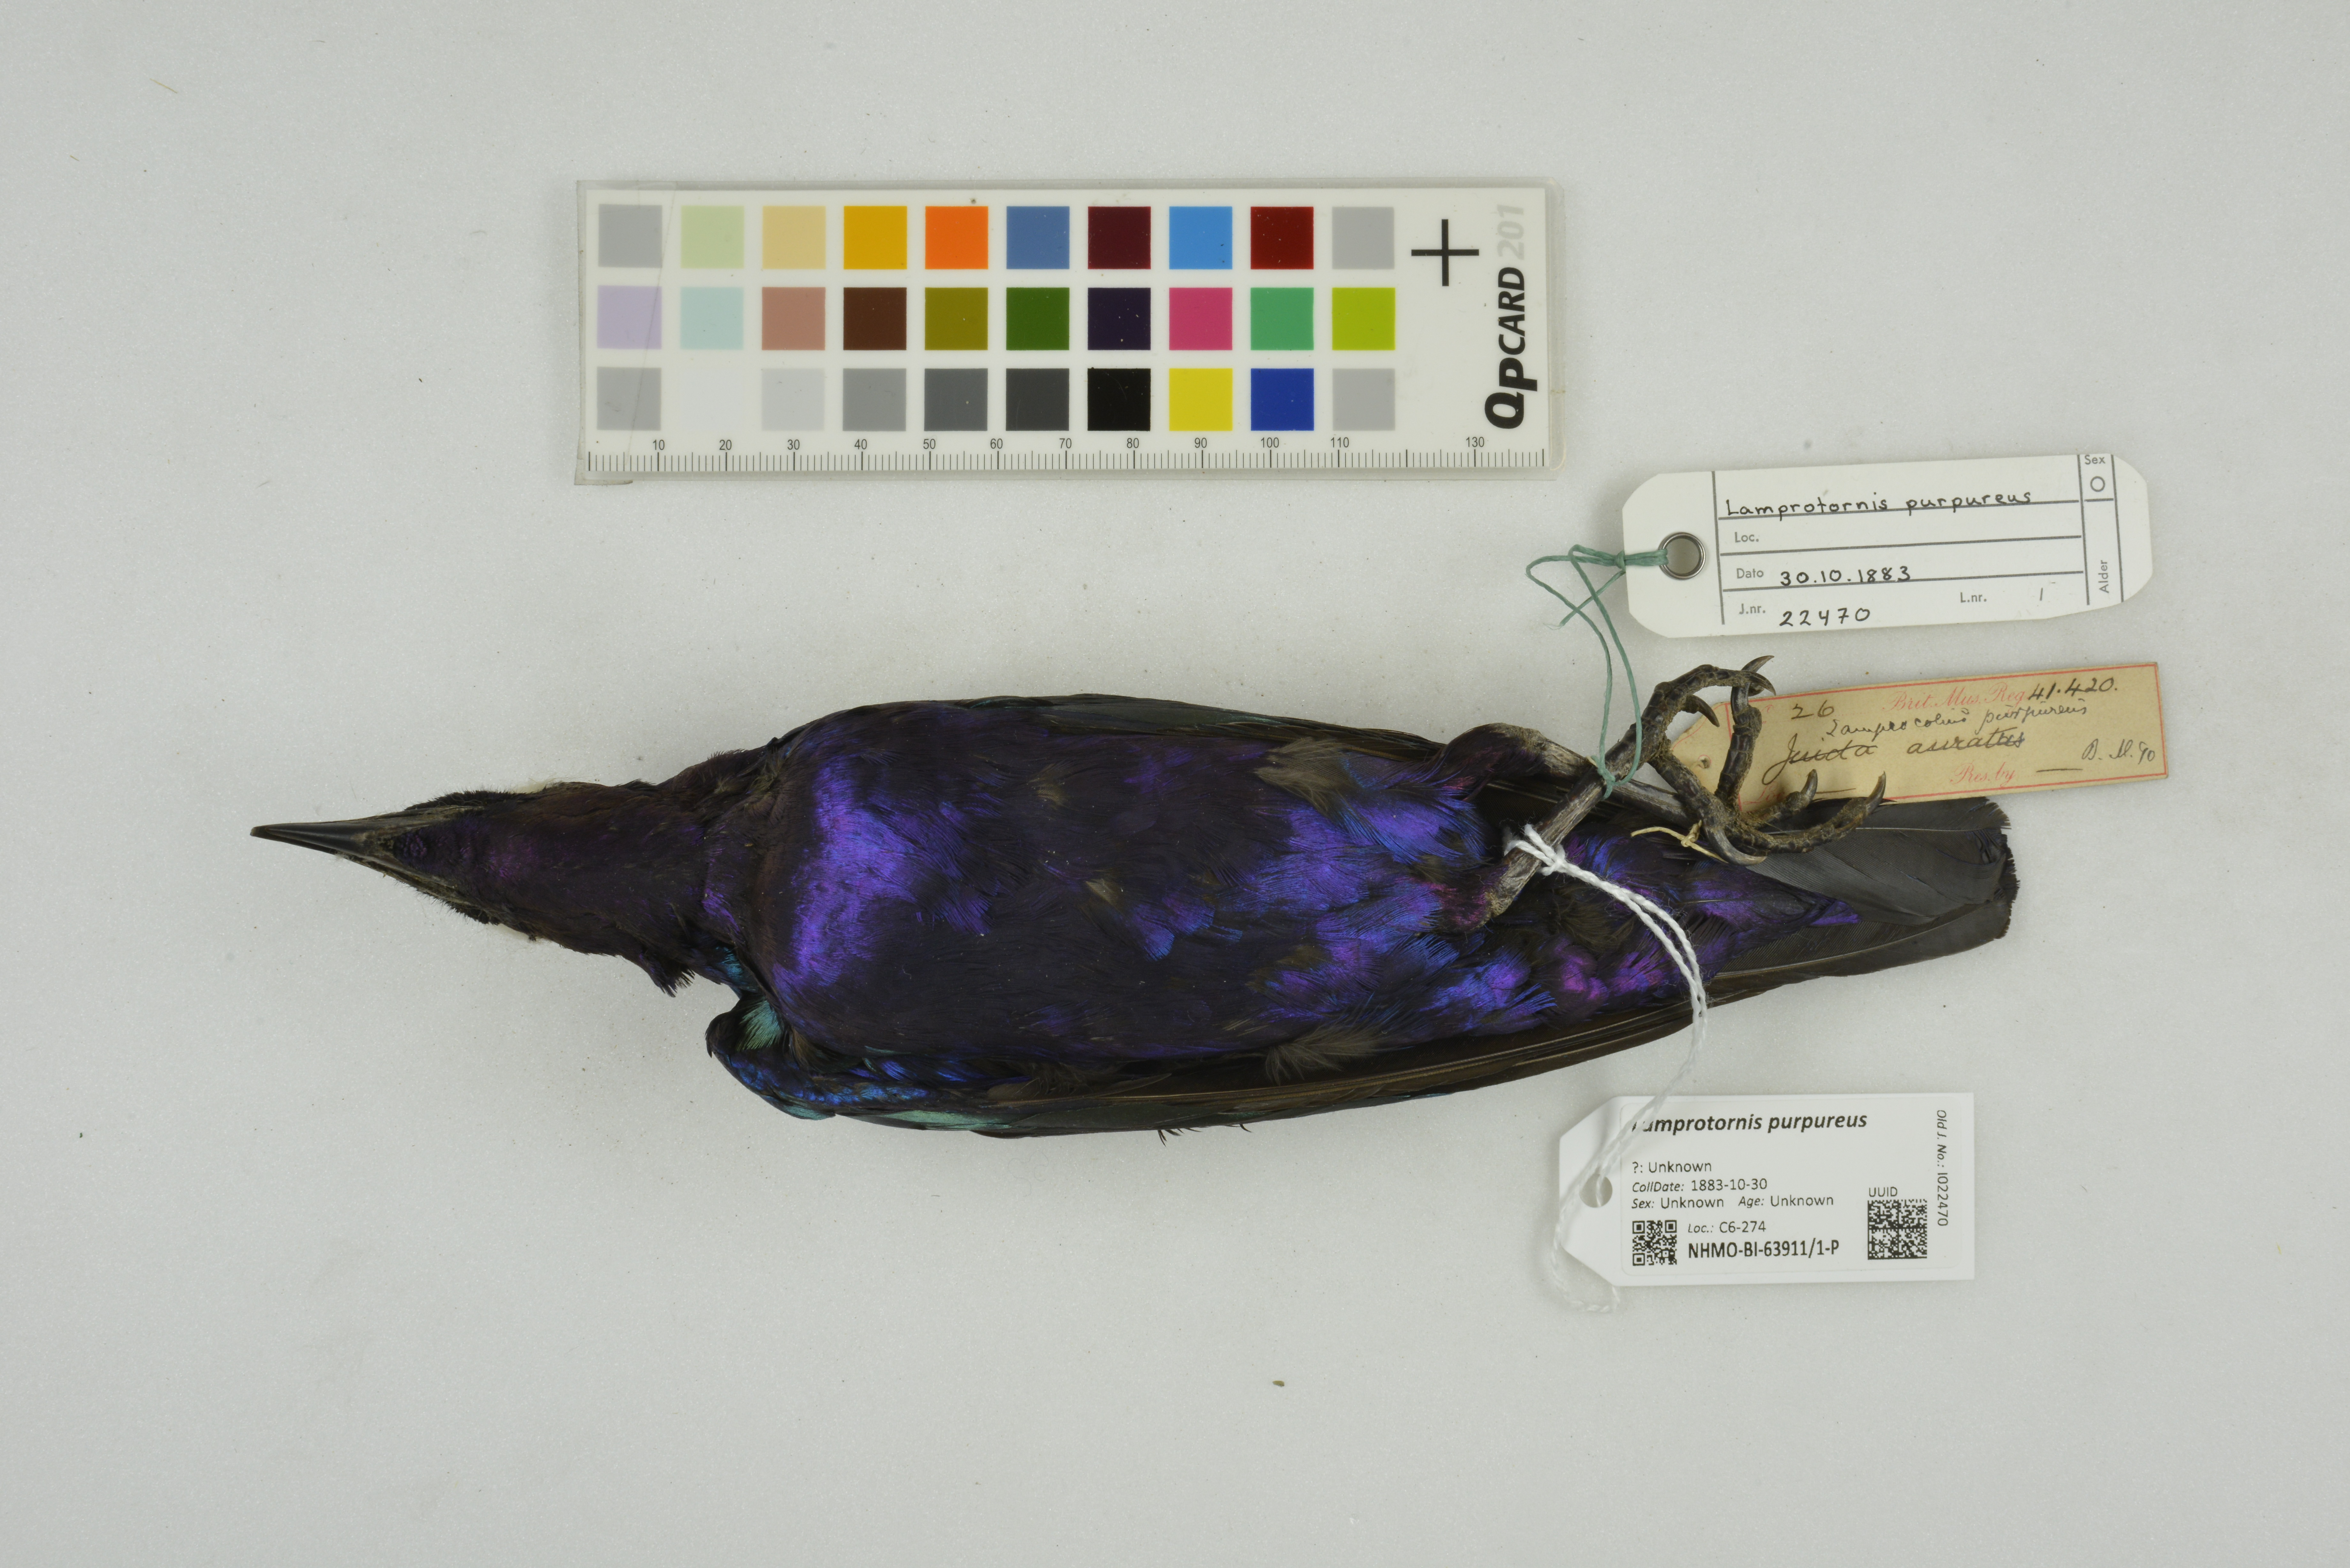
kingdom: Animalia
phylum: Chordata
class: Aves
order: Passeriformes
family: Sturnidae
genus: Lamprotornis
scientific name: Lamprotornis purpureus
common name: Purple starling
